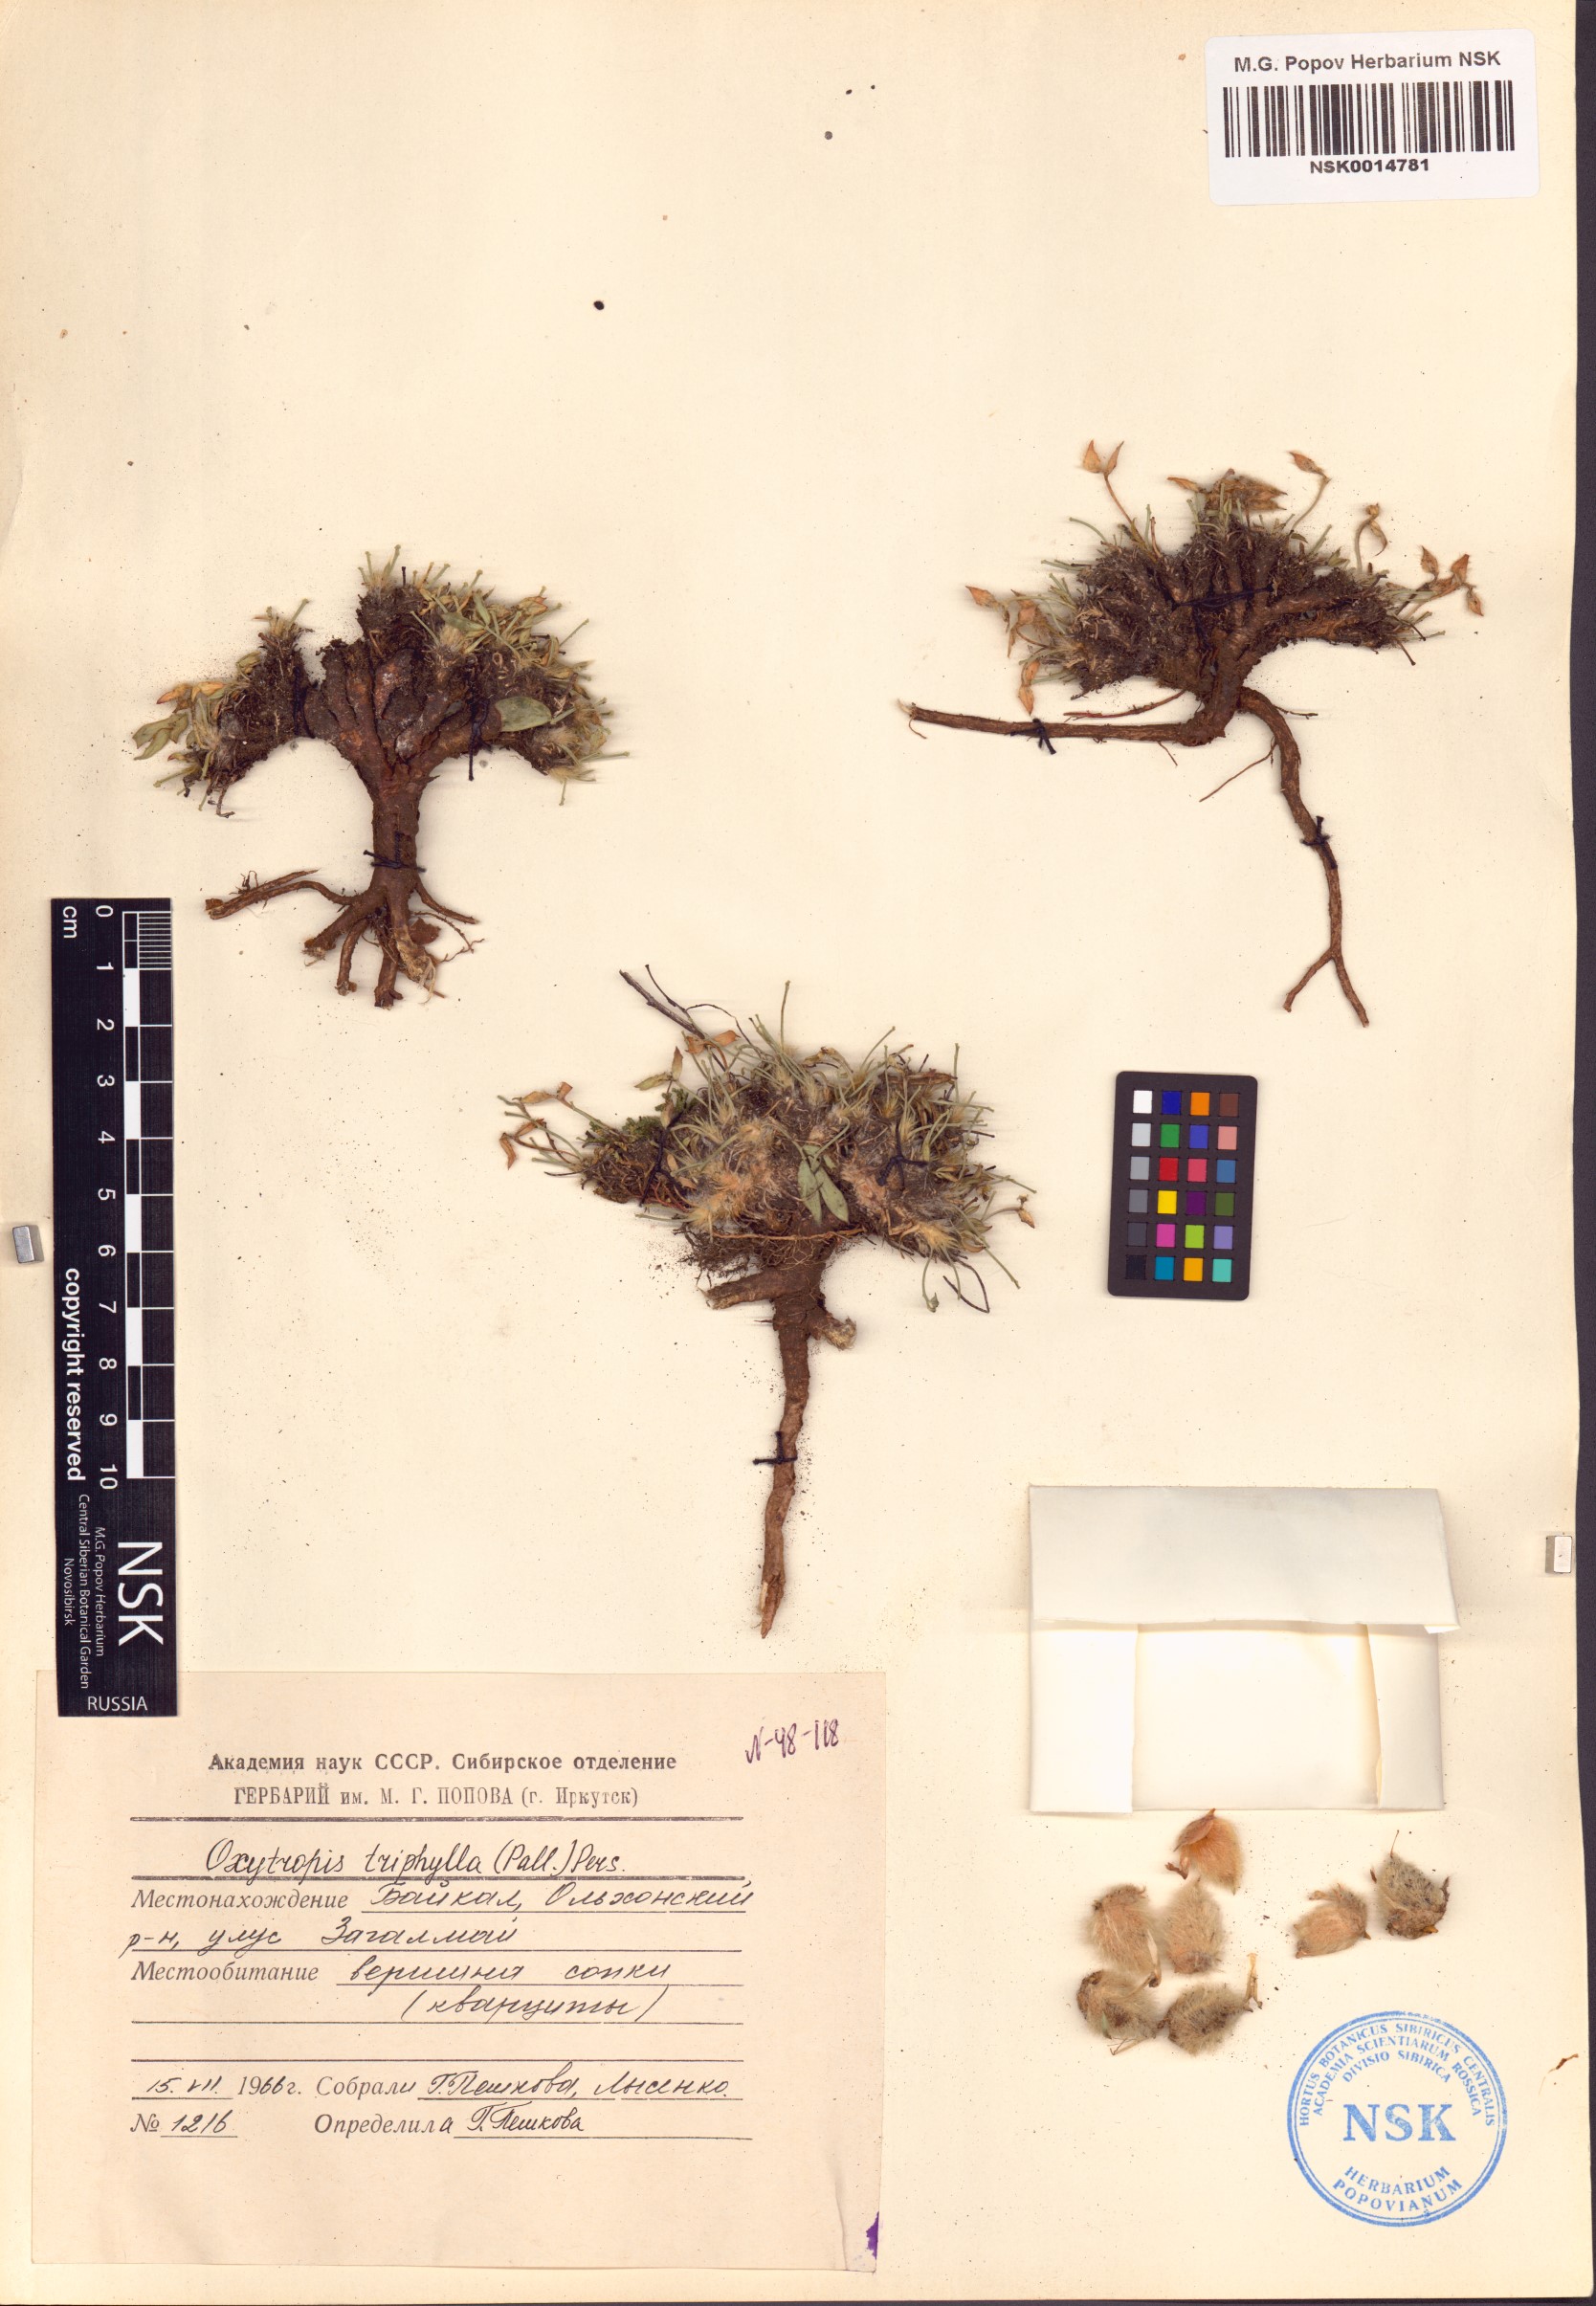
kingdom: Plantae
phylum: Tracheophyta
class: Magnoliopsida
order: Fabales
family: Fabaceae
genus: Oxytropis
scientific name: Oxytropis triphylla
